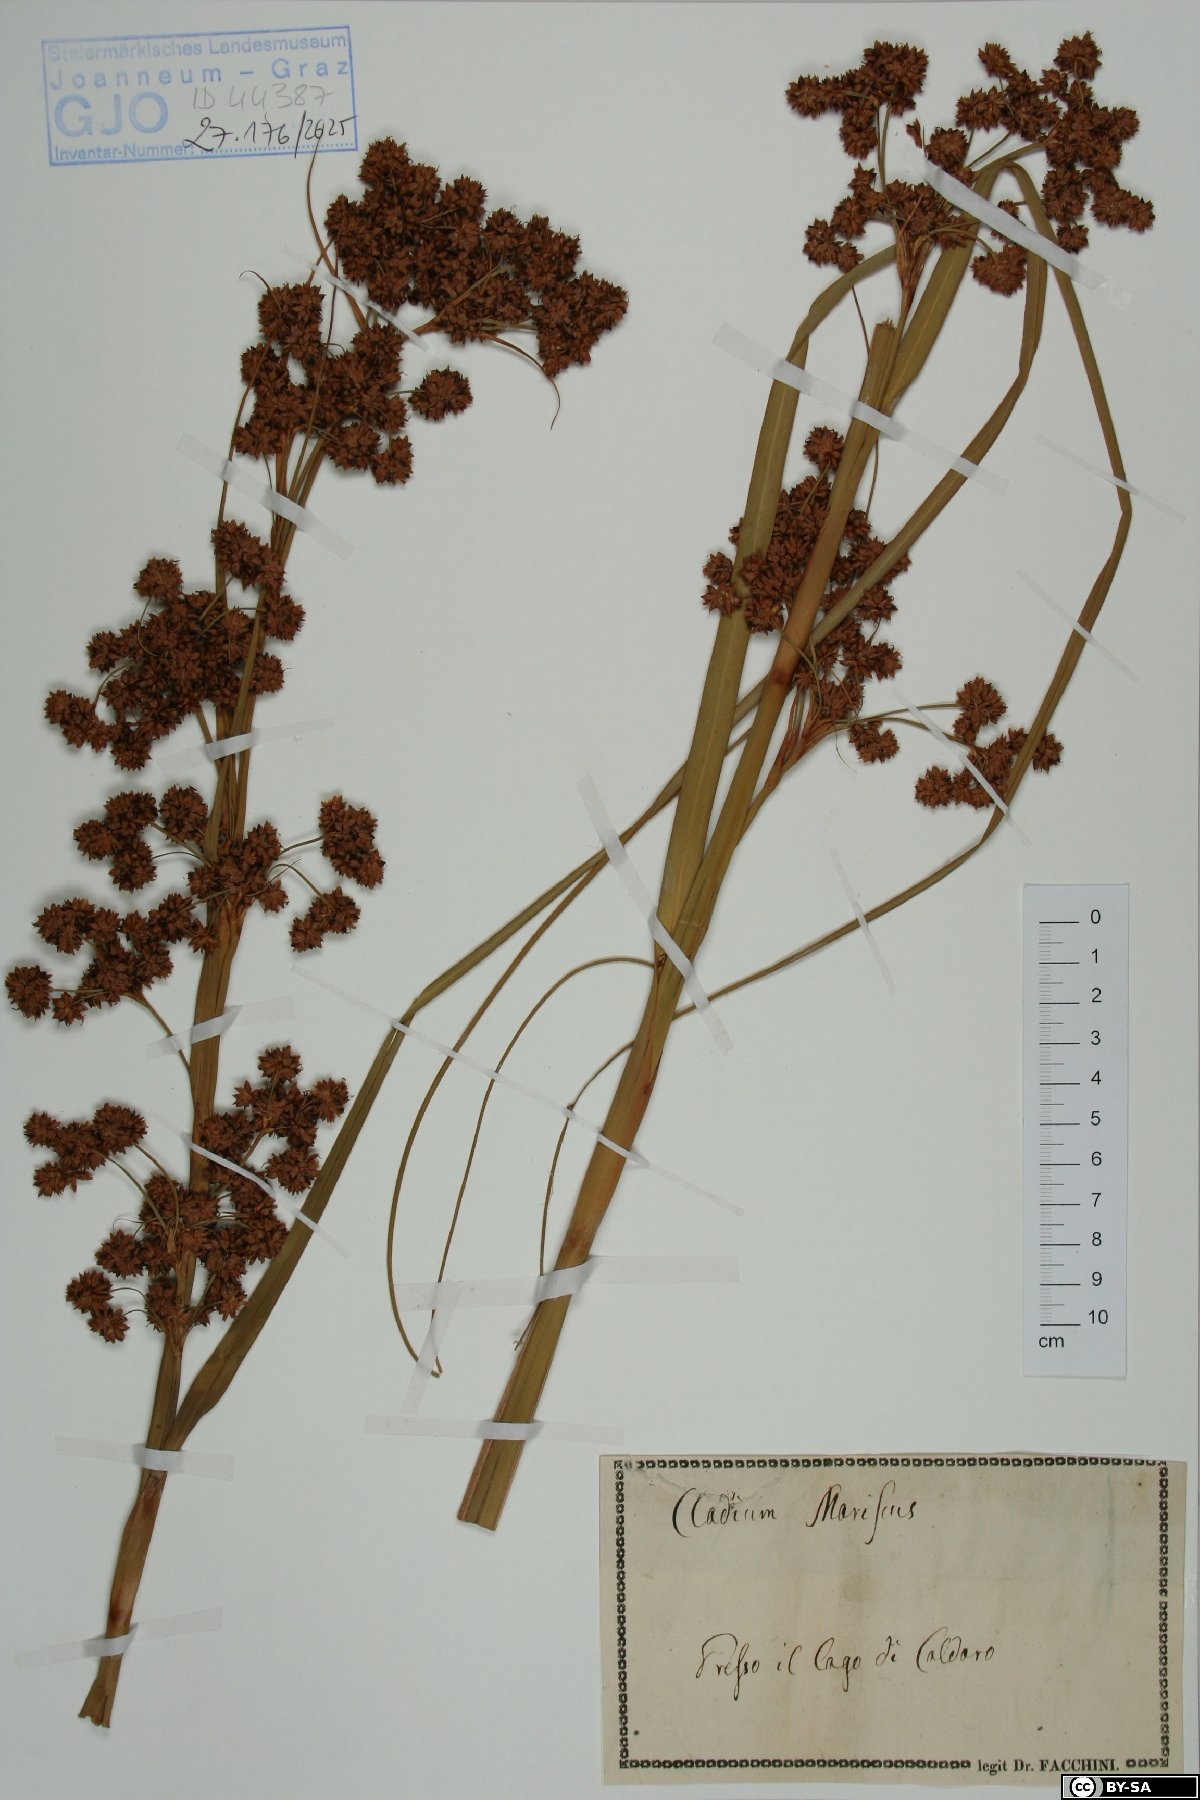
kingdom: Plantae
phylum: Tracheophyta
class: Liliopsida
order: Poales
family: Cyperaceae
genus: Cladium
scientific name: Cladium mariscus
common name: Great fen-sedge
